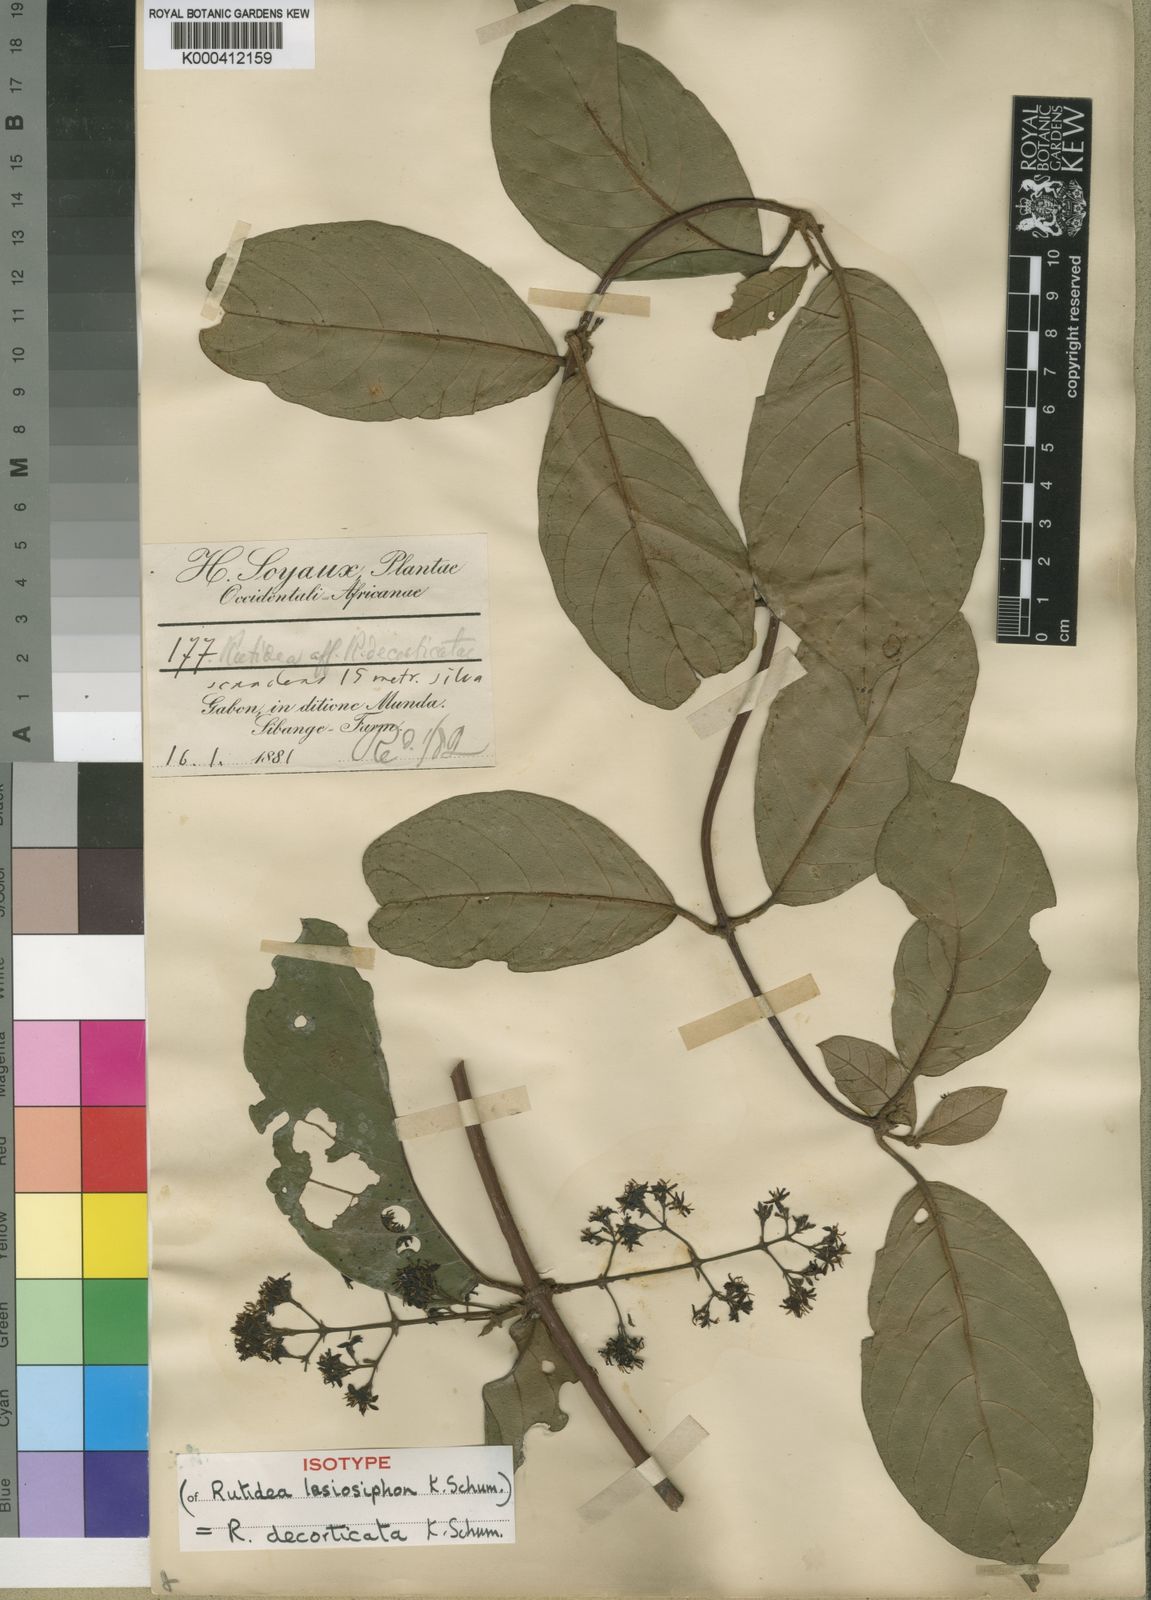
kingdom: Plantae
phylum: Tracheophyta
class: Magnoliopsida
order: Gentianales
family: Rubiaceae
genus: Rutidea
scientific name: Rutidea
